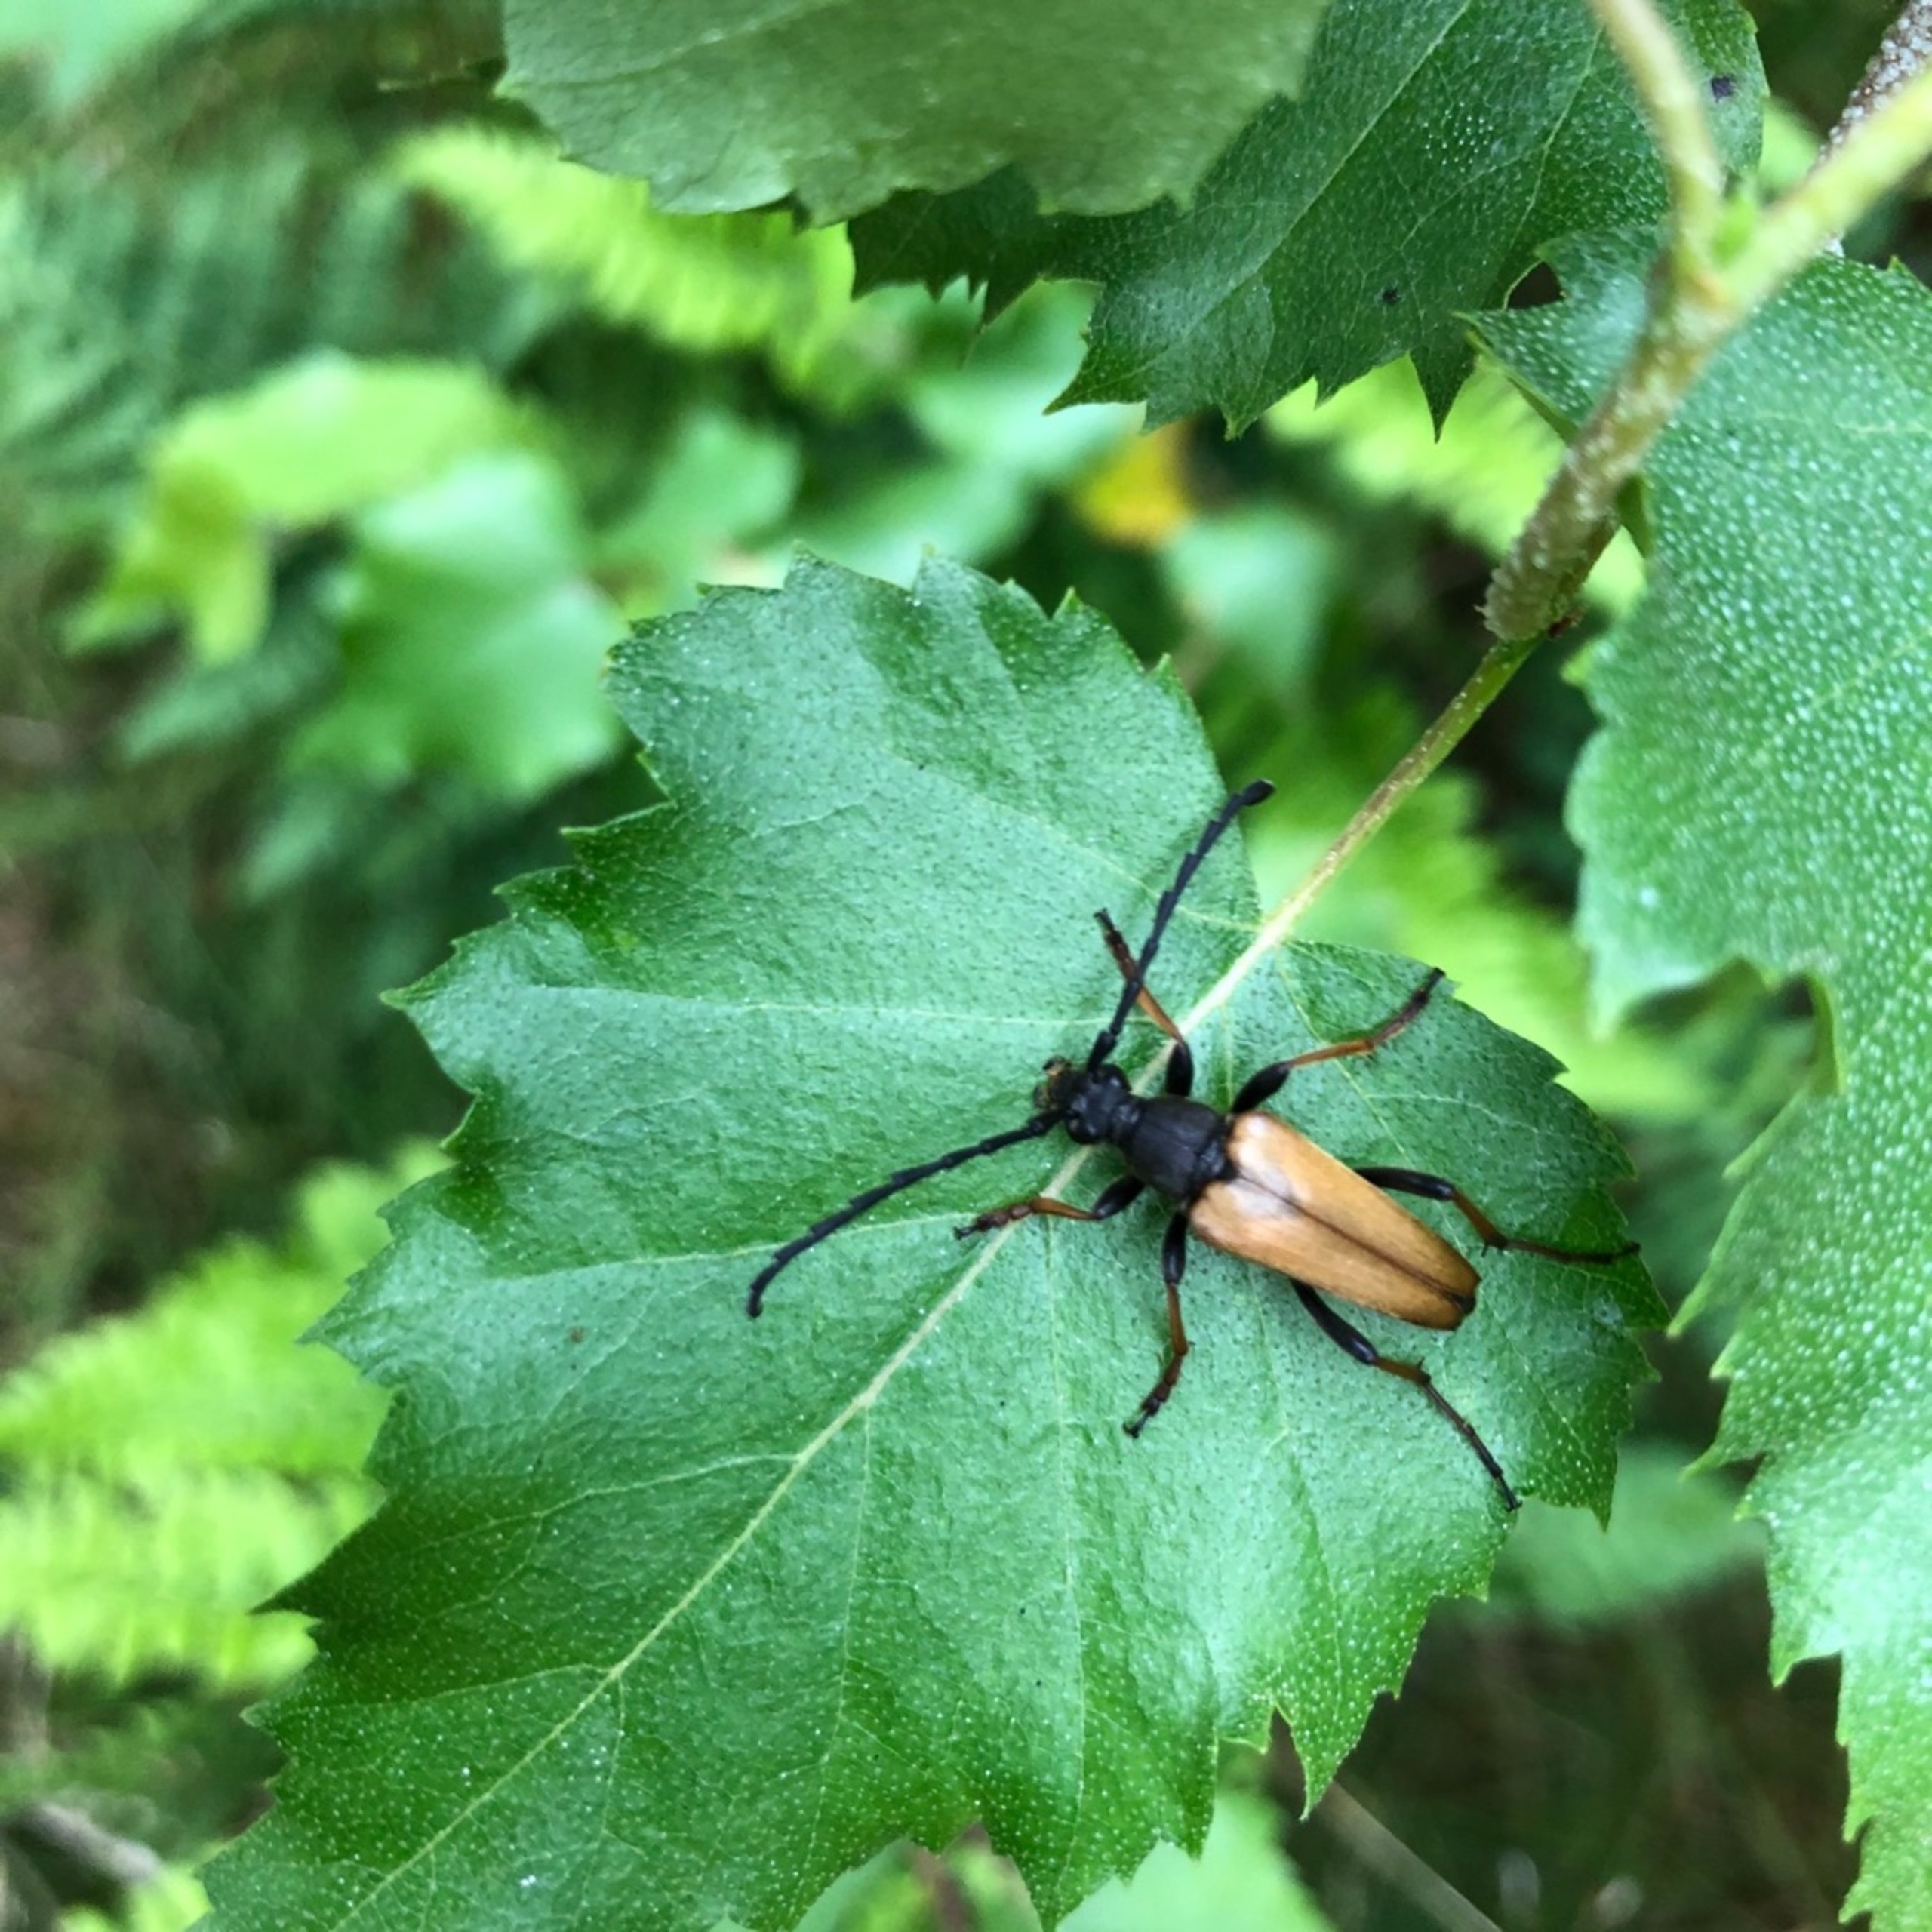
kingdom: Animalia
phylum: Arthropoda
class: Insecta
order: Coleoptera
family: Cerambycidae
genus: Stictoleptura
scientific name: Stictoleptura rubra
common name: Rød blomsterbuk
